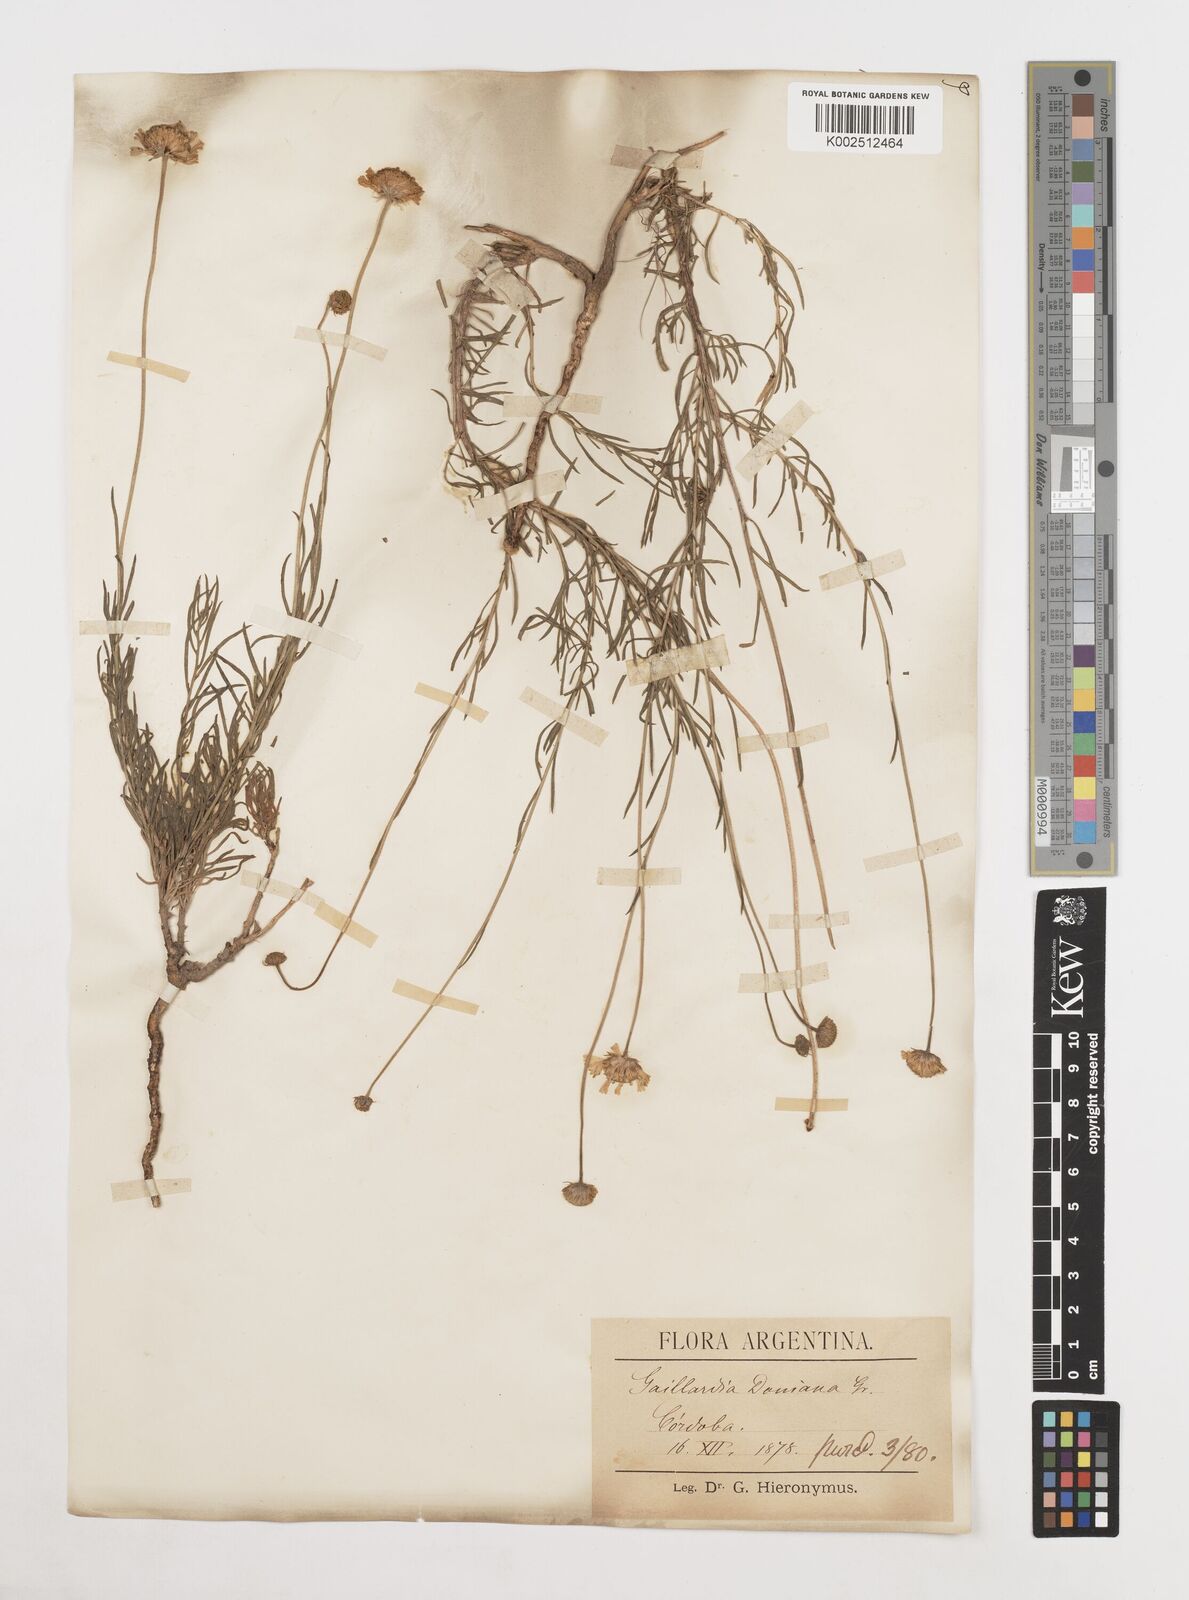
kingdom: Plantae
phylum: Tracheophyta
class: Magnoliopsida
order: Asterales
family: Asteraceae
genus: Gaillardia
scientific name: Gaillardia
